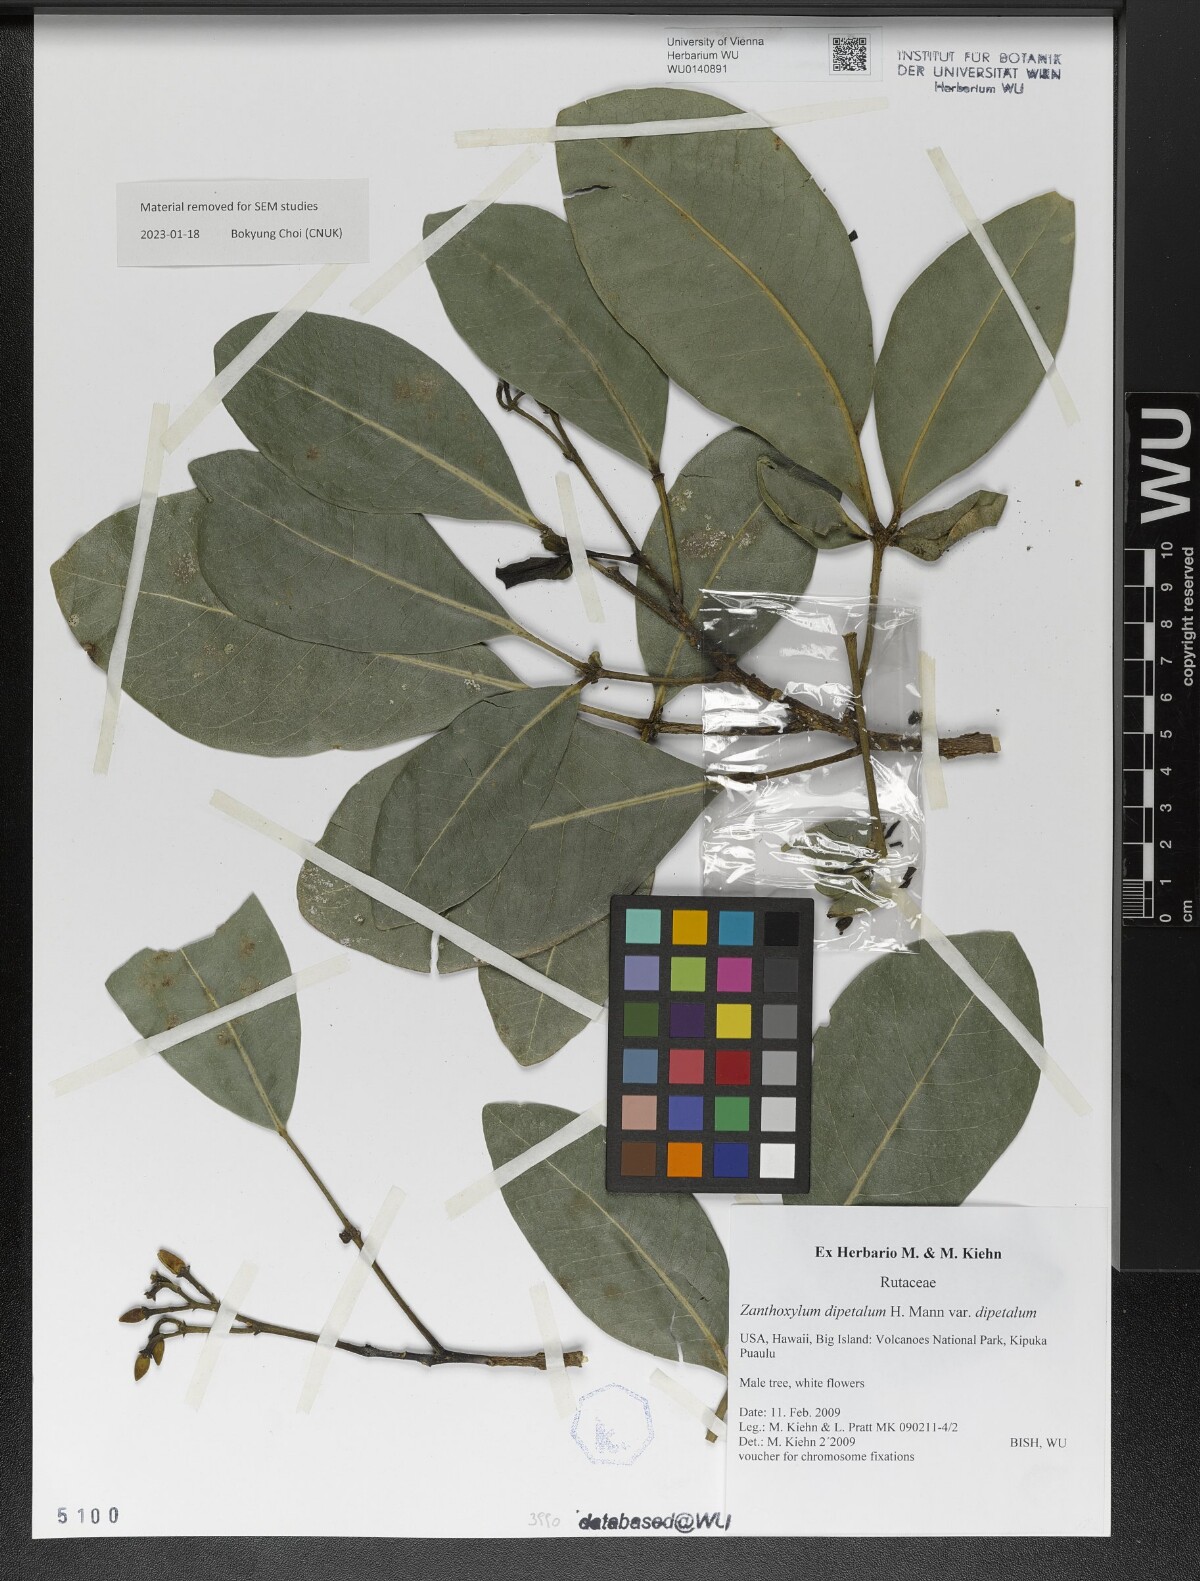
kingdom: Plantae
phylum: Tracheophyta
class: Magnoliopsida
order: Sapindales
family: Rutaceae
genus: Zanthoxylum
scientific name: Zanthoxylum dipetalum
